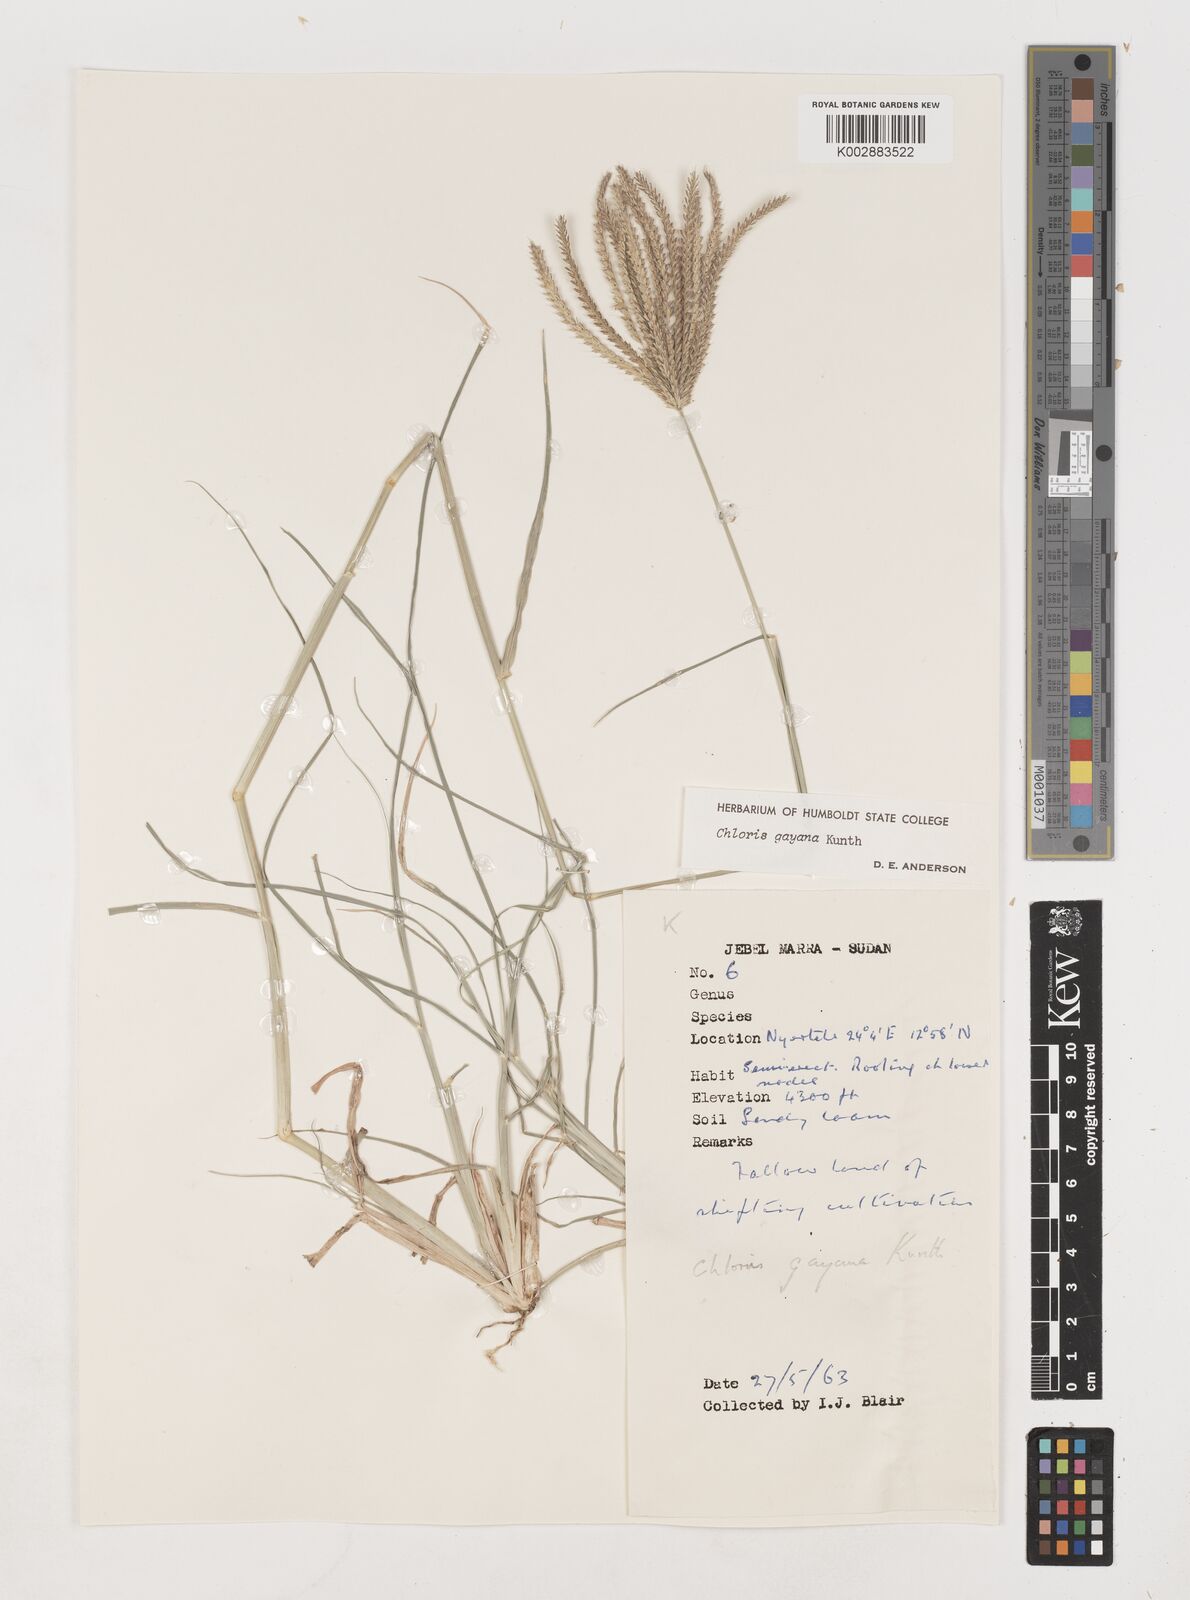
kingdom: Plantae
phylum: Tracheophyta
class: Liliopsida
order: Poales
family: Poaceae
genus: Chloris
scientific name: Chloris gayana
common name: Rhodes grass
